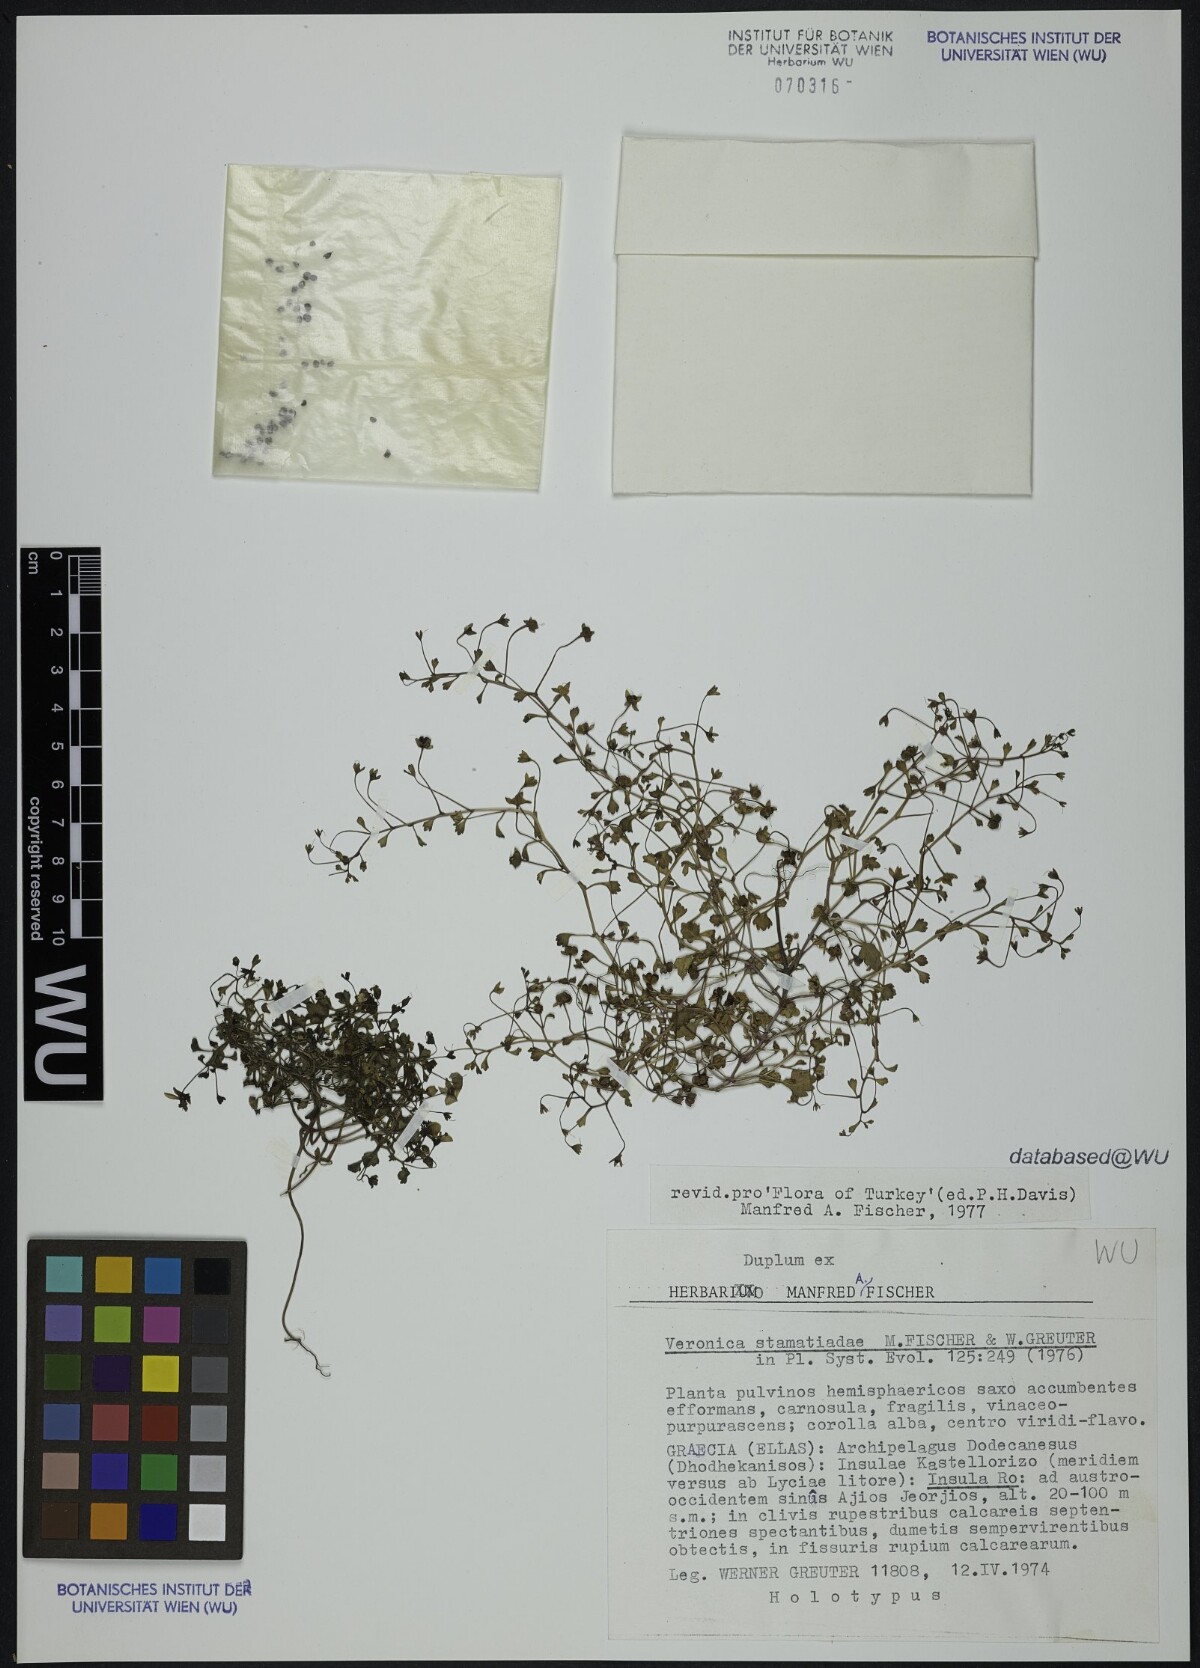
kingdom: Plantae
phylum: Tracheophyta
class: Magnoliopsida
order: Lamiales
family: Plantaginaceae
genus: Veronica
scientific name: Veronica stamatiadae
